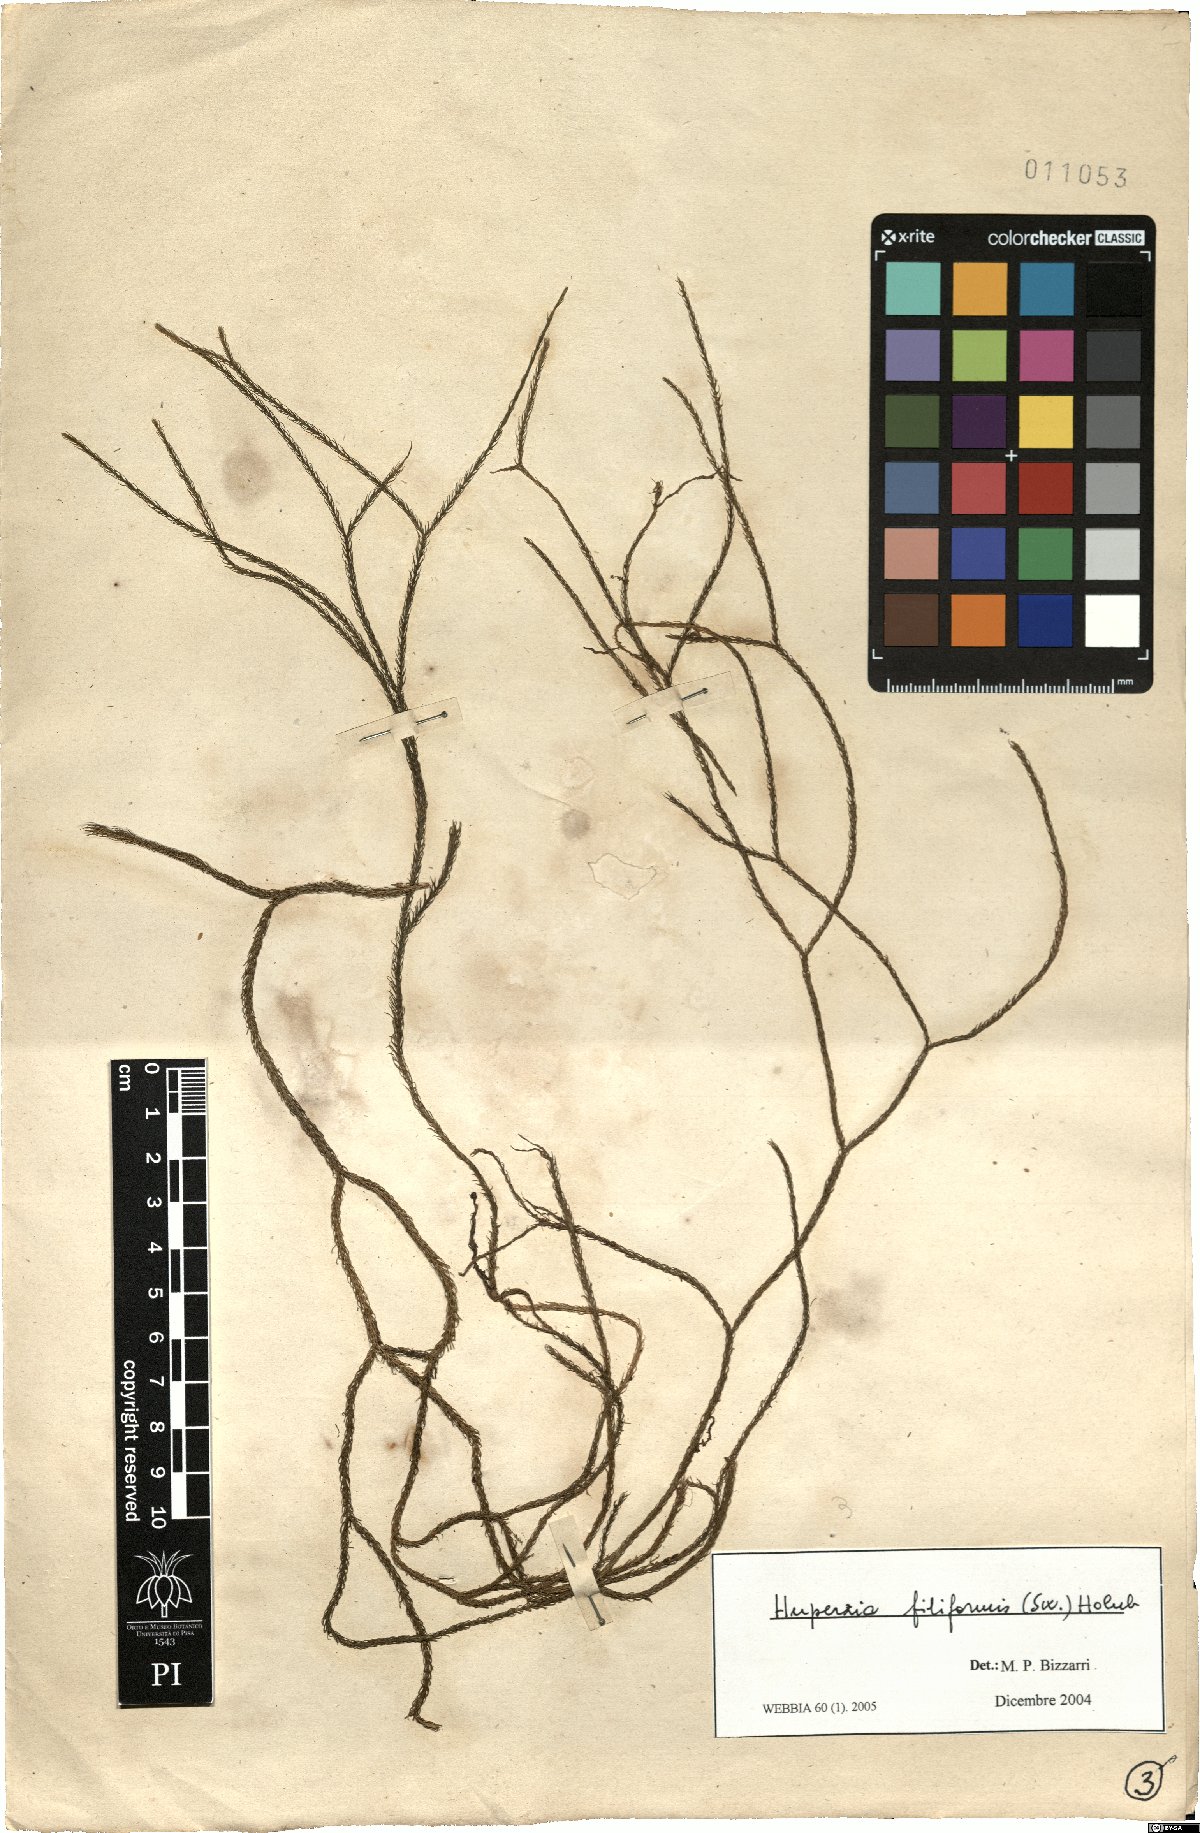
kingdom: Plantae
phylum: Tracheophyta
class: Lycopodiopsida
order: Lycopodiales
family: Lycopodiaceae
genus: Phlegmariurus
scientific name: Phlegmariurus filiformis
